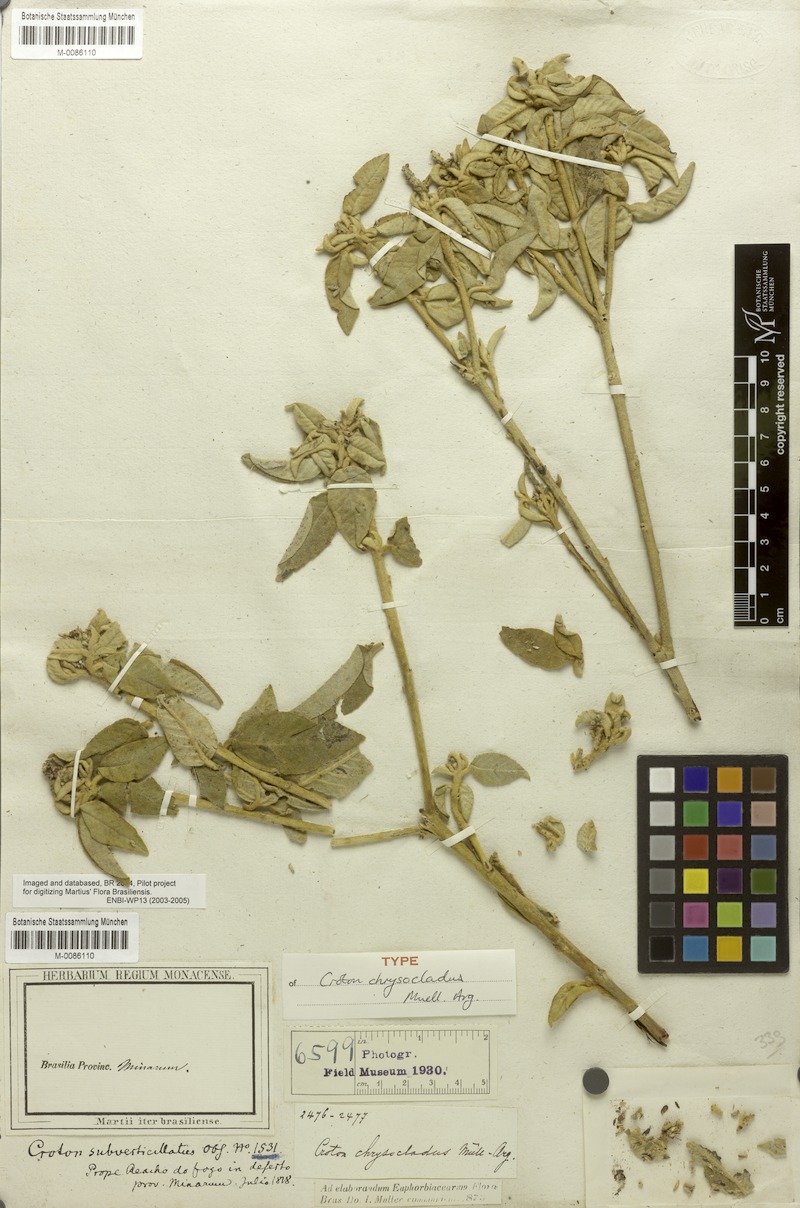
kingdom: Plantae
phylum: Tracheophyta
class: Magnoliopsida
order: Malpighiales
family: Euphorbiaceae
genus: Croton
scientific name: Croton chrysocladus
